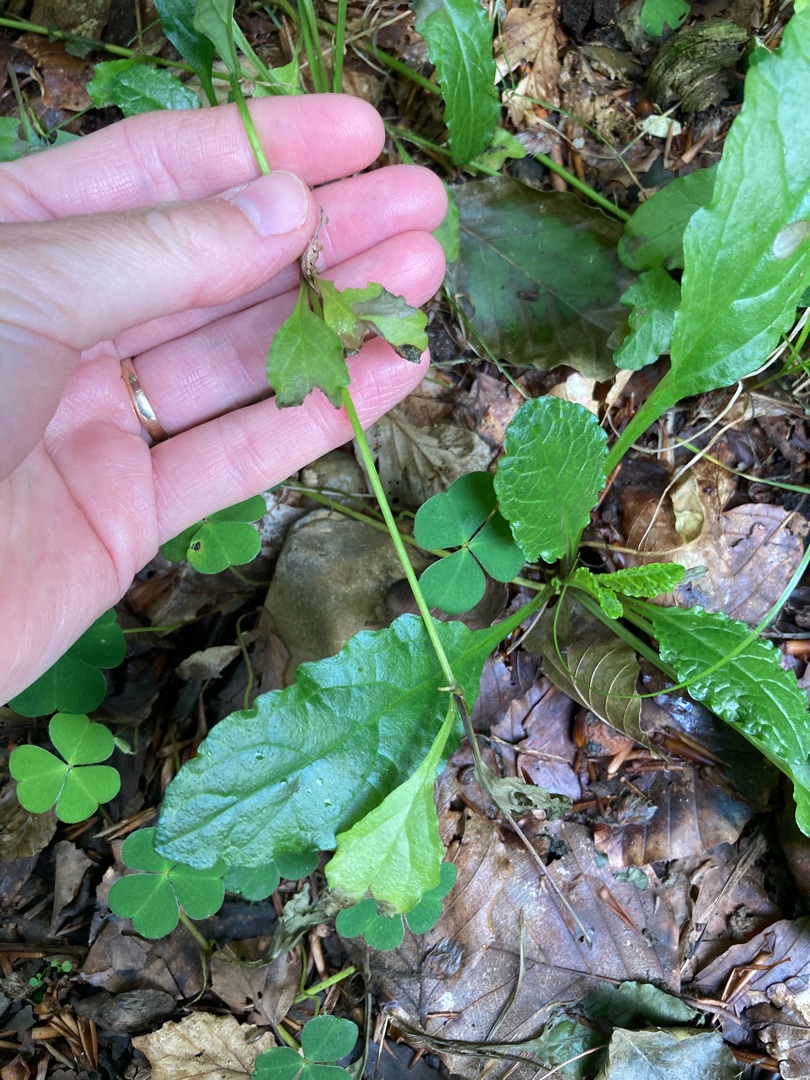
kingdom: Plantae
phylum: Tracheophyta
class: Magnoliopsida
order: Lamiales
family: Lamiaceae
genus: Ajuga
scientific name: Ajuga reptans
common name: Krybende læbeløs
